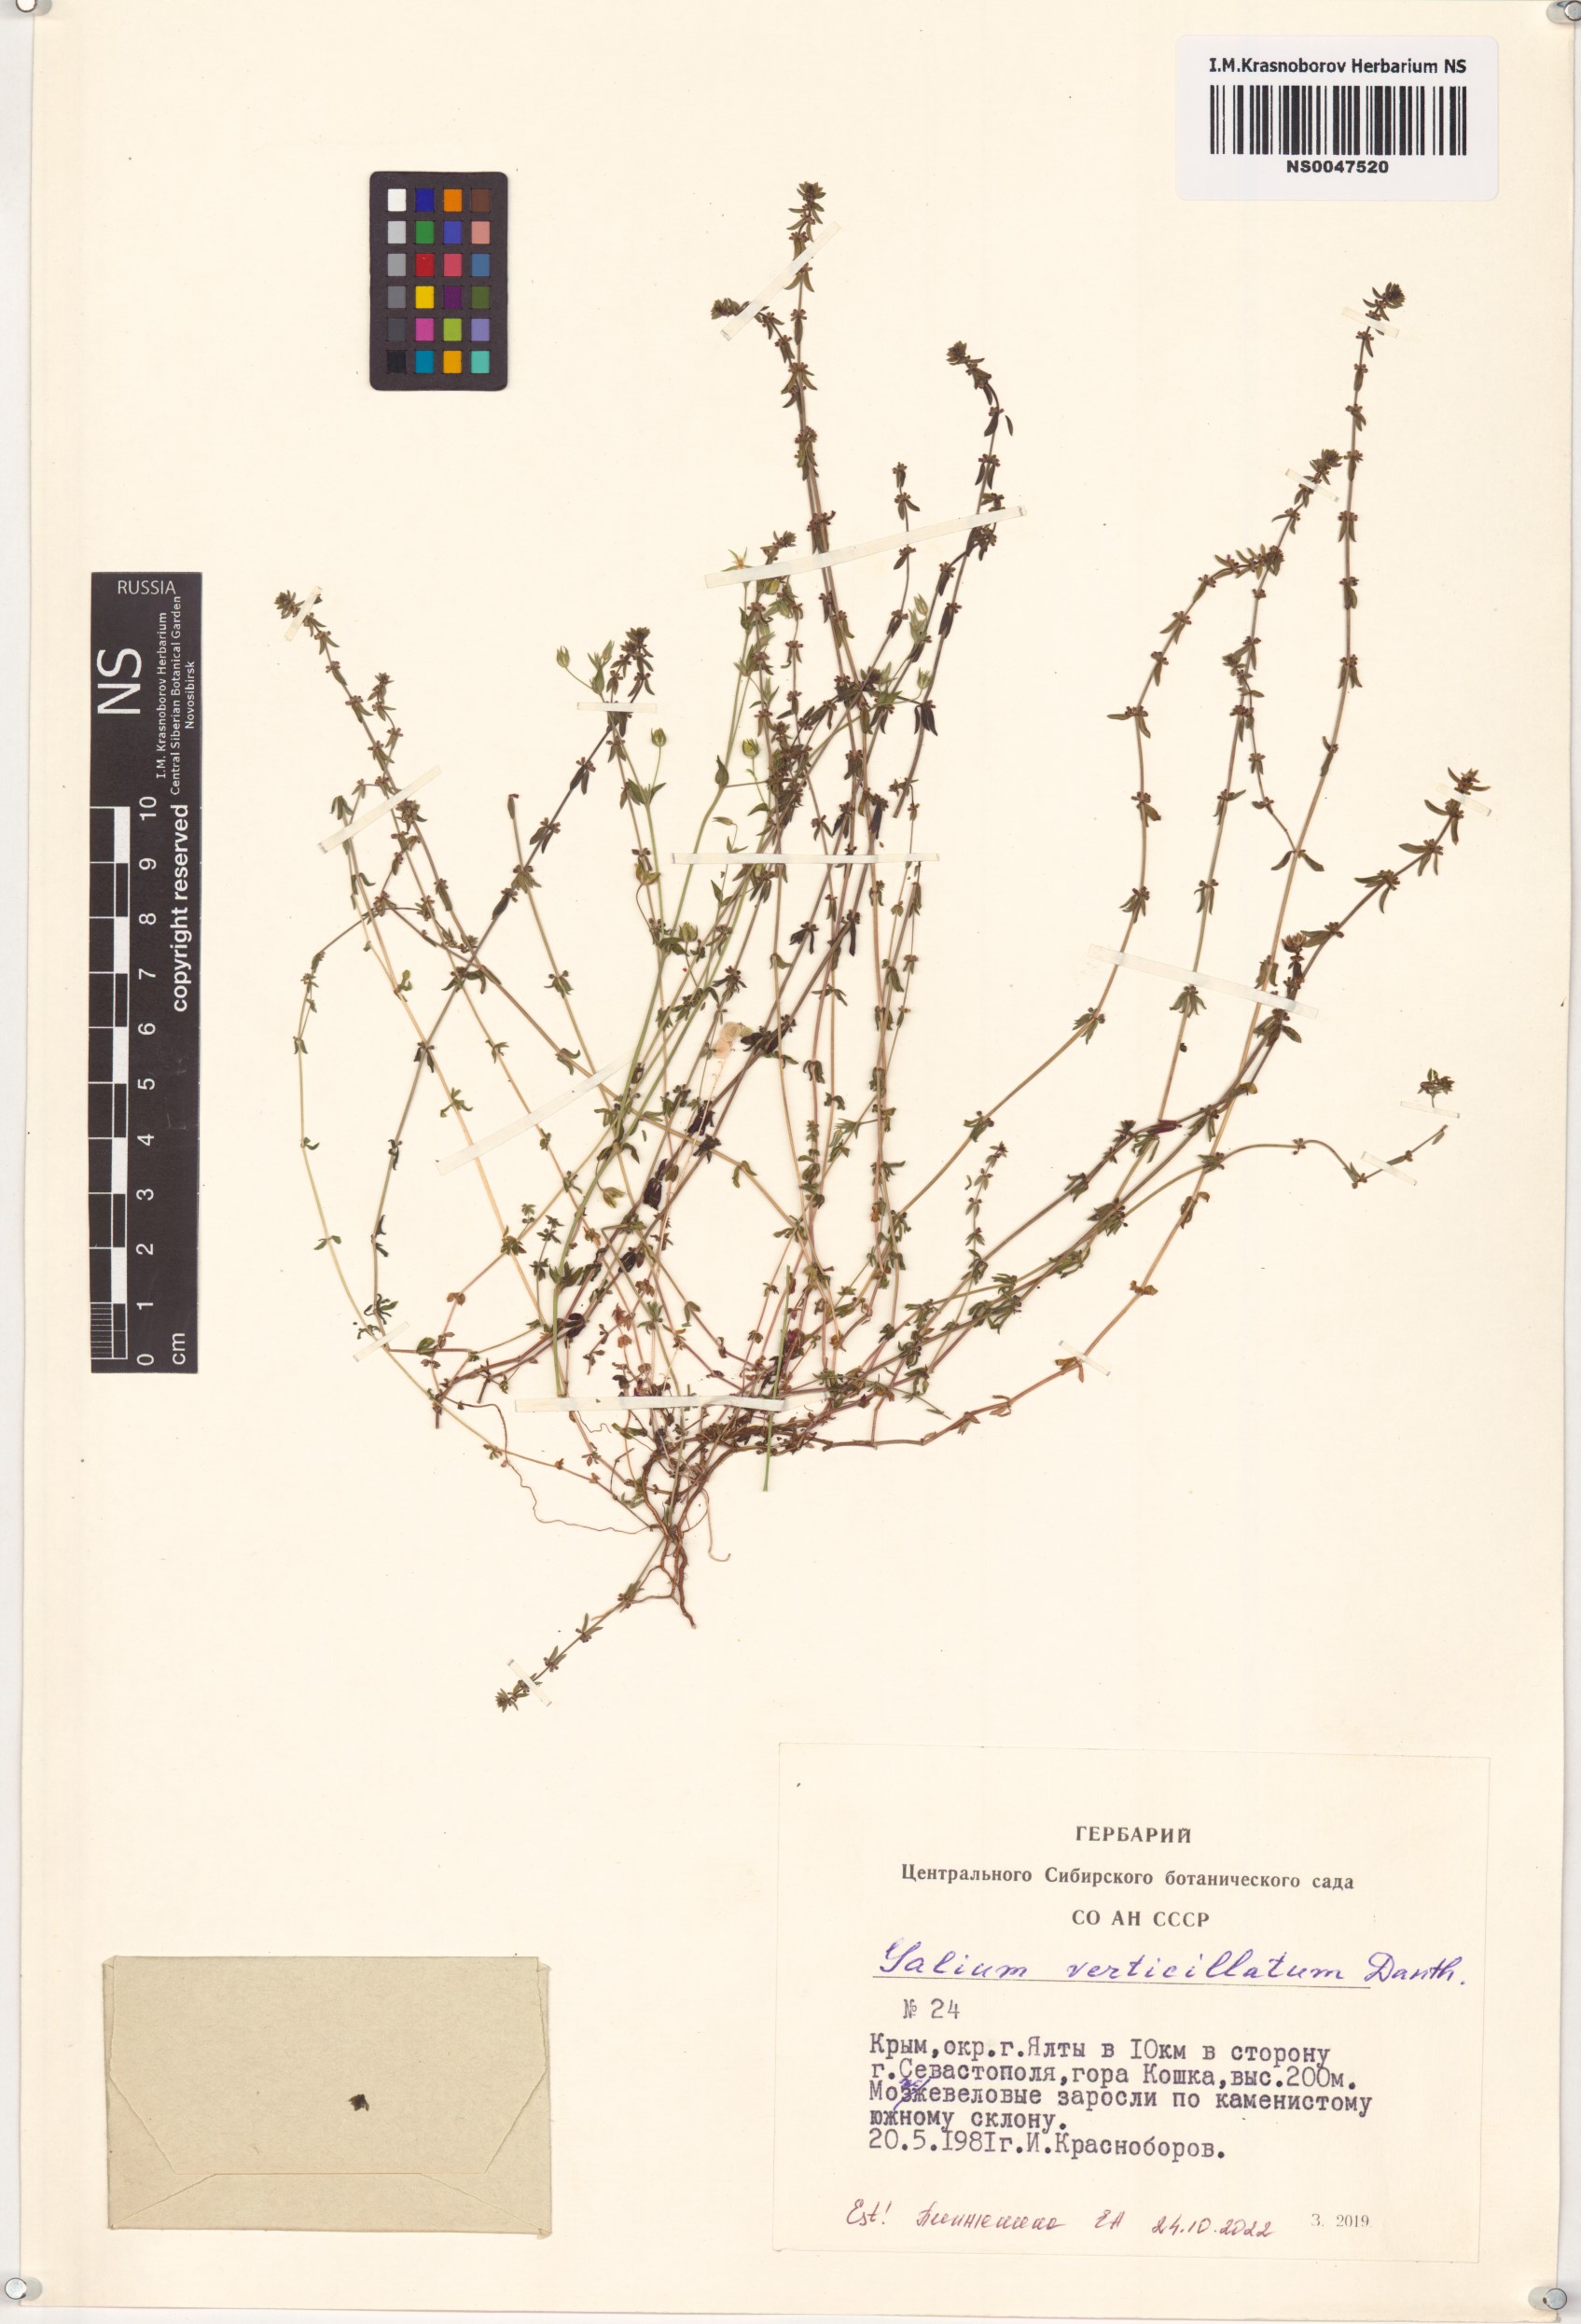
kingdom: Plantae
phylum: Tracheophyta
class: Magnoliopsida
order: Gentianales
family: Rubiaceae
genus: Galium
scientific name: Galium verticillatum
